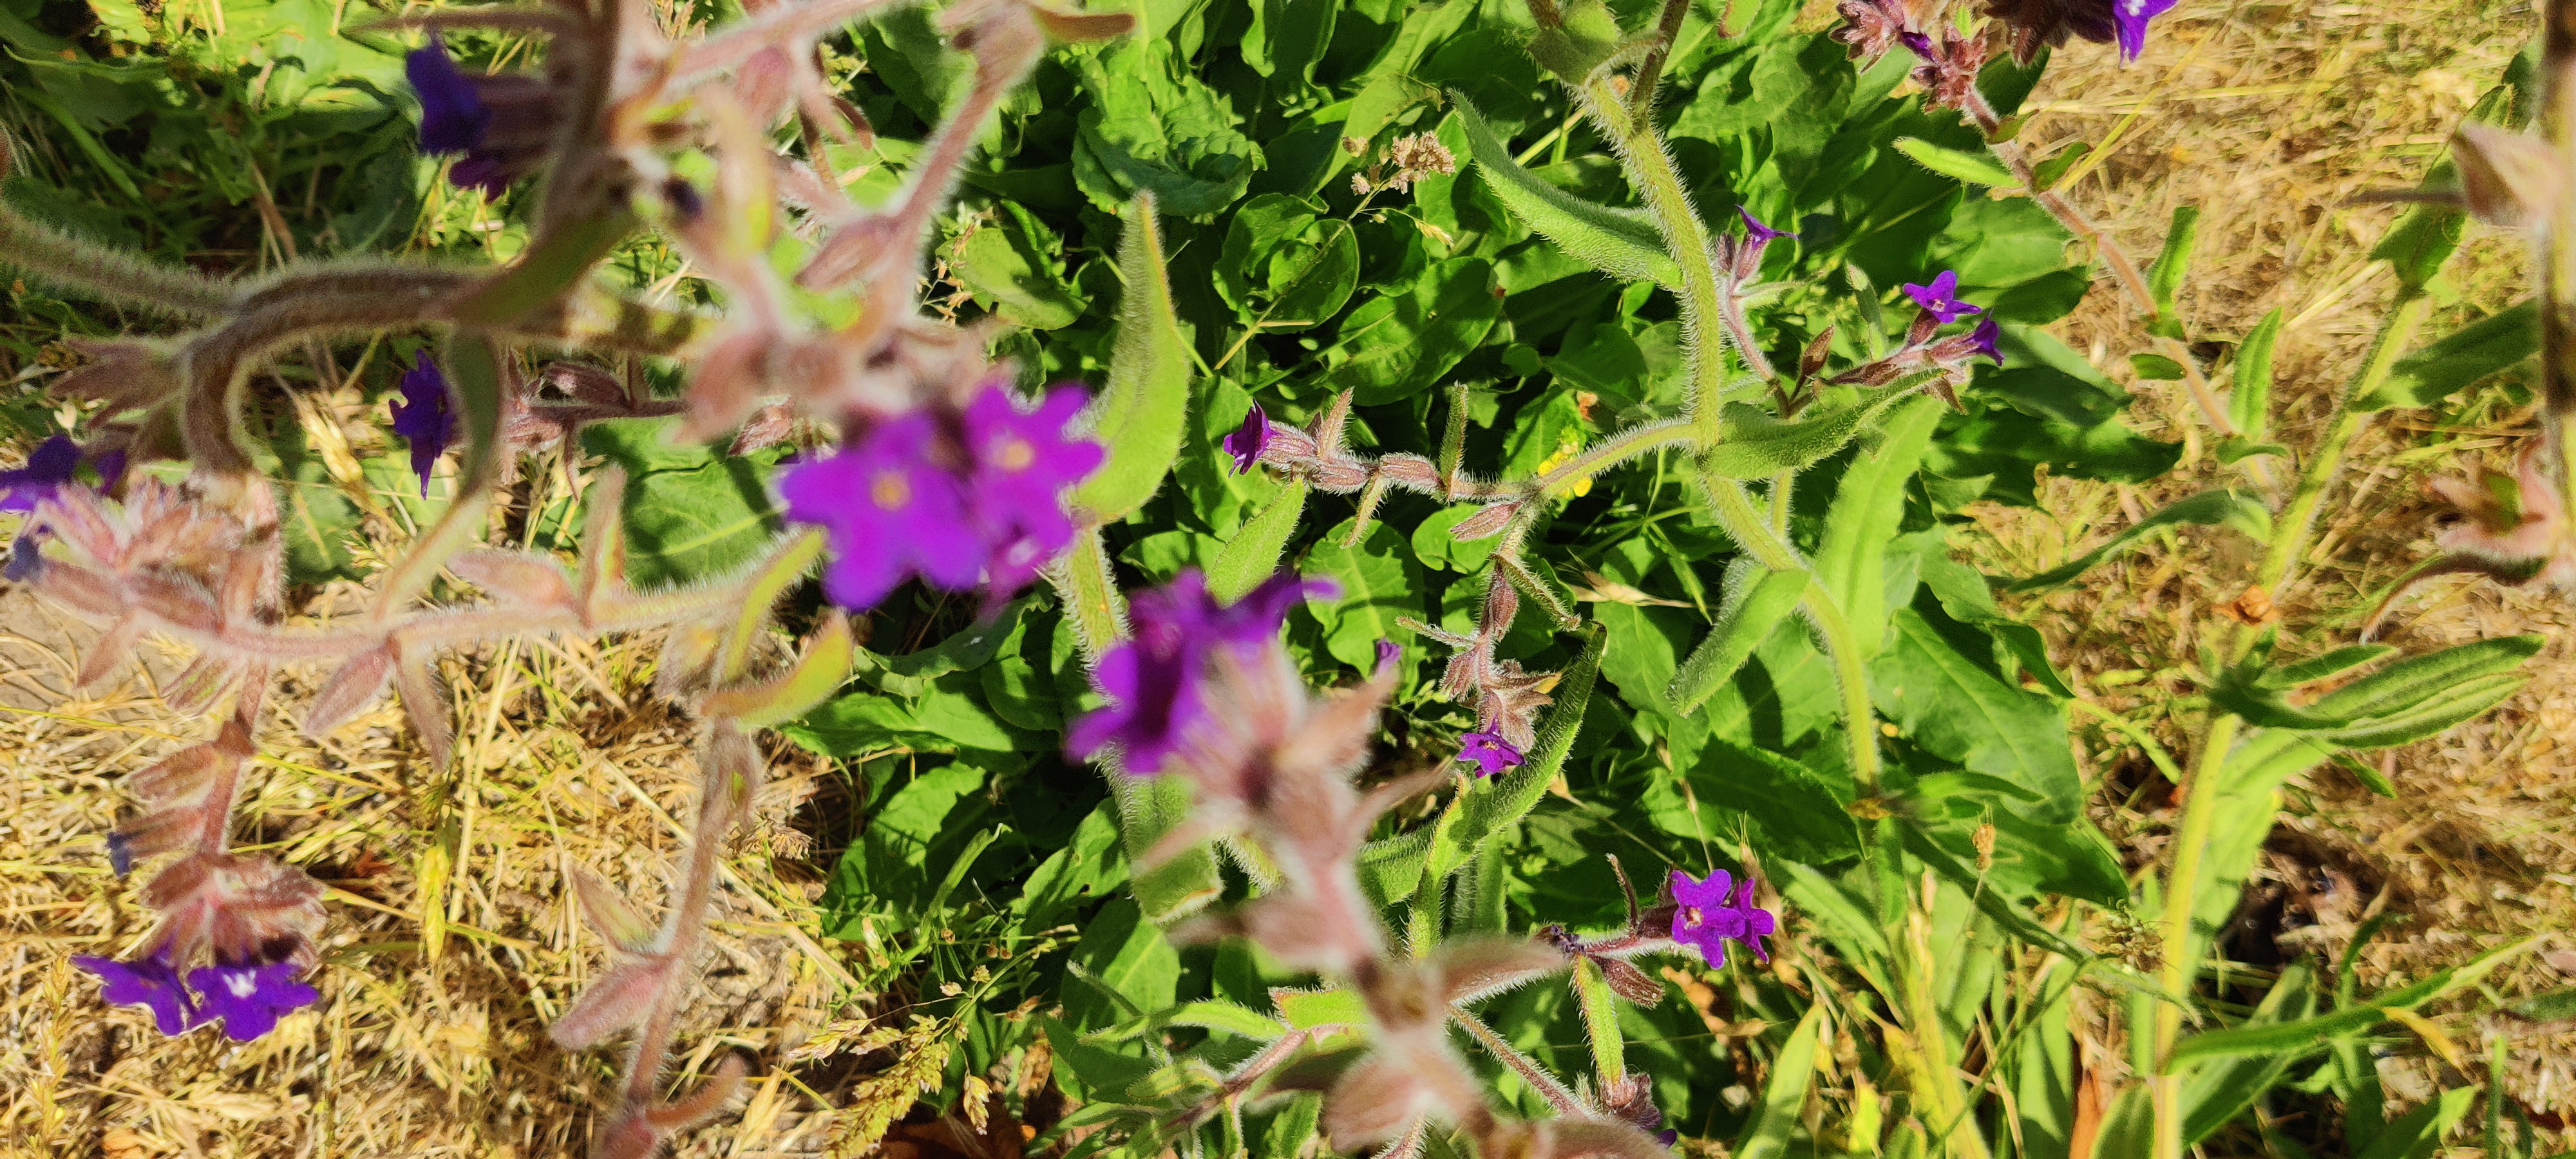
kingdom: Plantae
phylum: Tracheophyta
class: Magnoliopsida
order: Boraginales
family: Boraginaceae
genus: Anchusa
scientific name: Anchusa officinalis
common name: Læge-oksetunge
